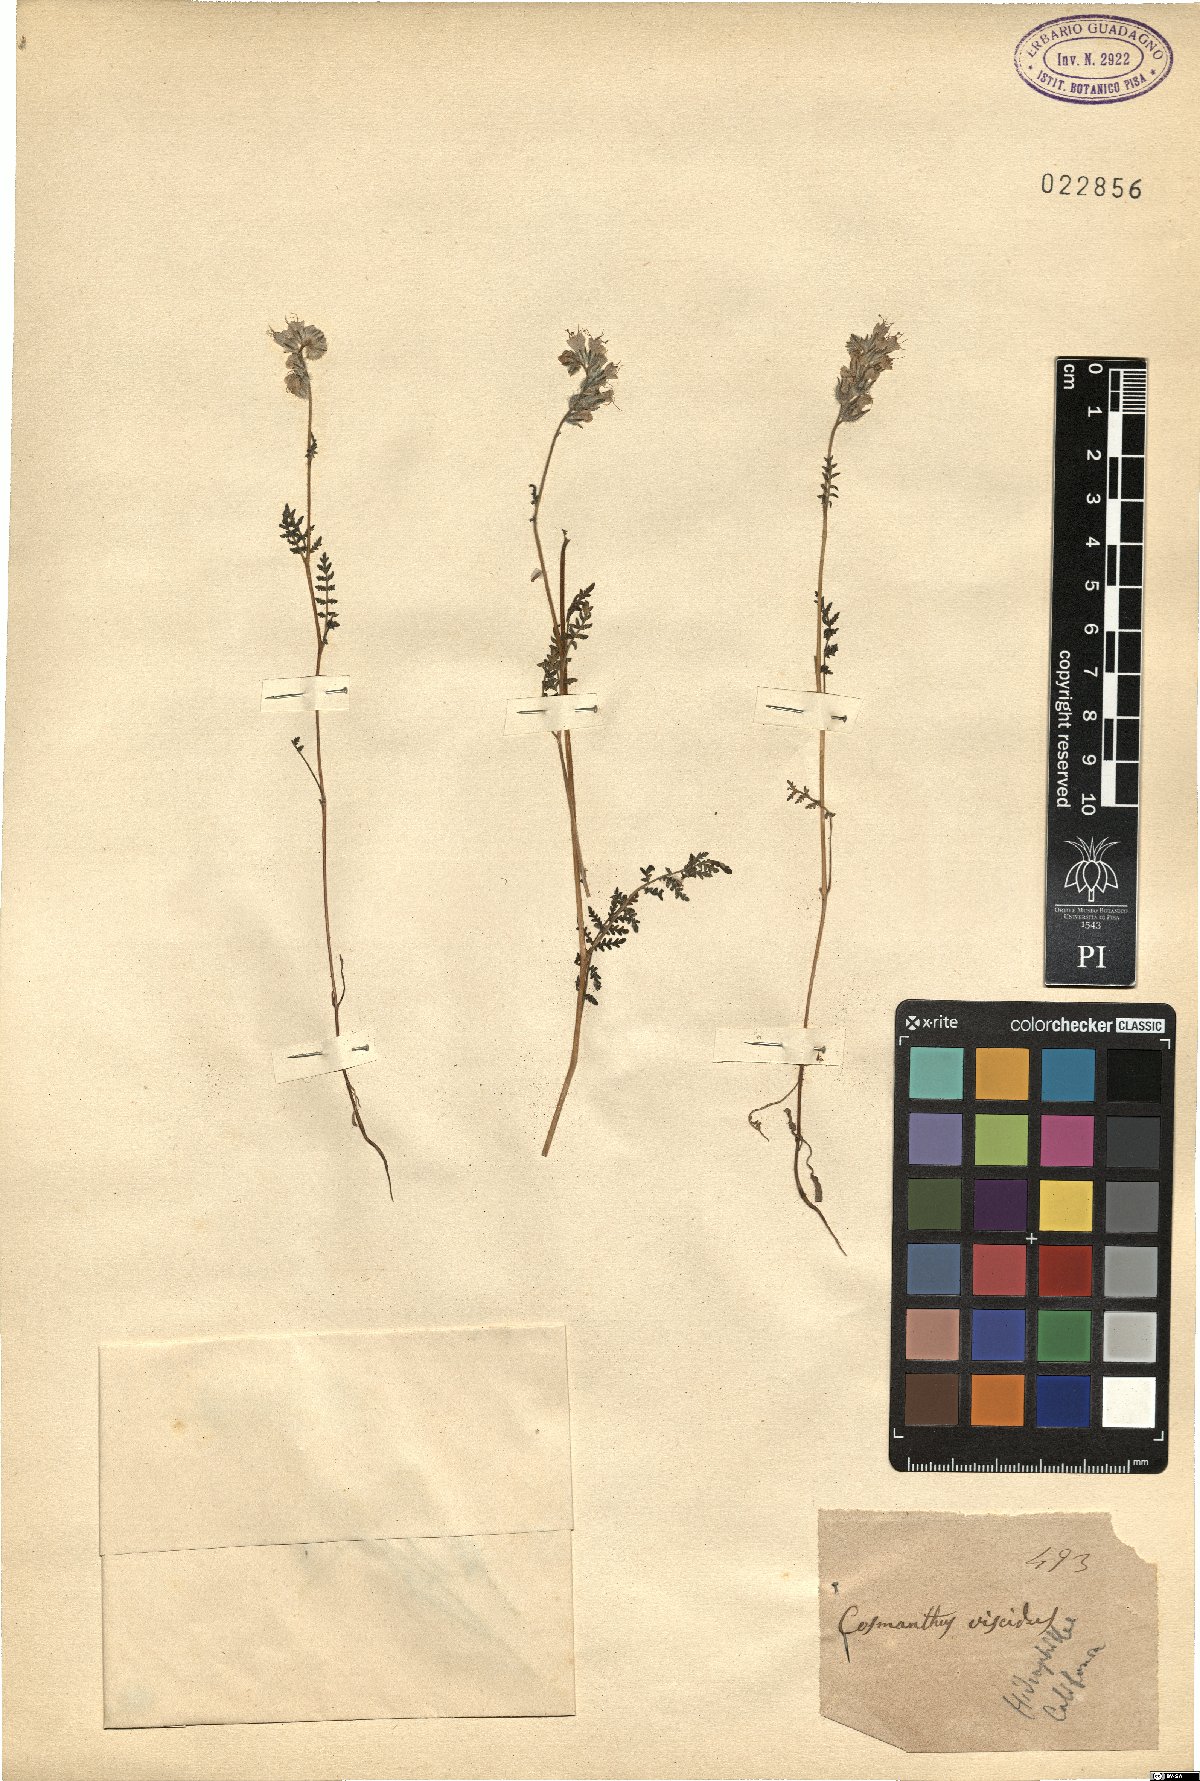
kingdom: Plantae
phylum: Tracheophyta
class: Magnoliopsida
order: Boraginales
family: Hydrophyllaceae
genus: Phacelia
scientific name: Phacelia grandiflora
